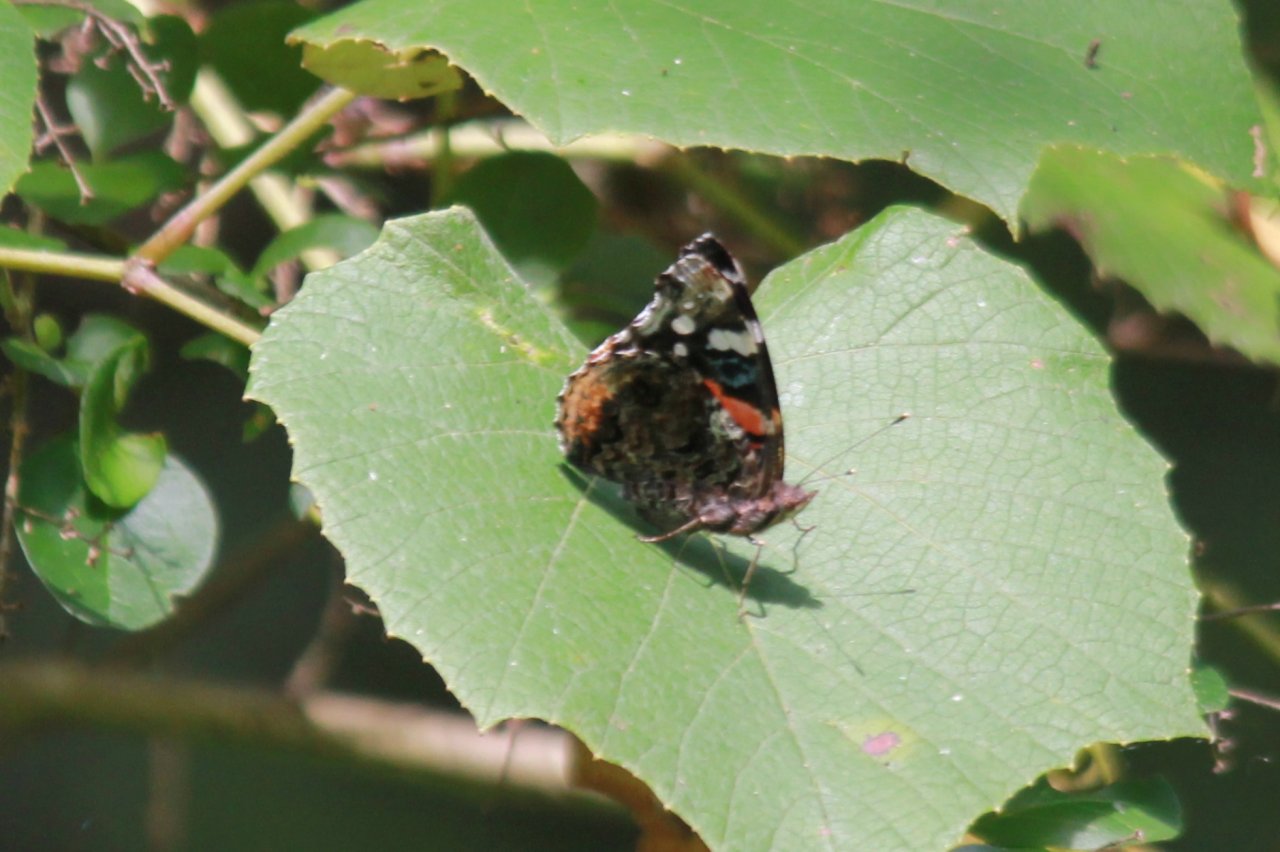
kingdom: Animalia
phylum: Arthropoda
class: Insecta
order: Lepidoptera
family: Nymphalidae
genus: Vanessa
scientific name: Vanessa atalanta
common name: Red Admiral
